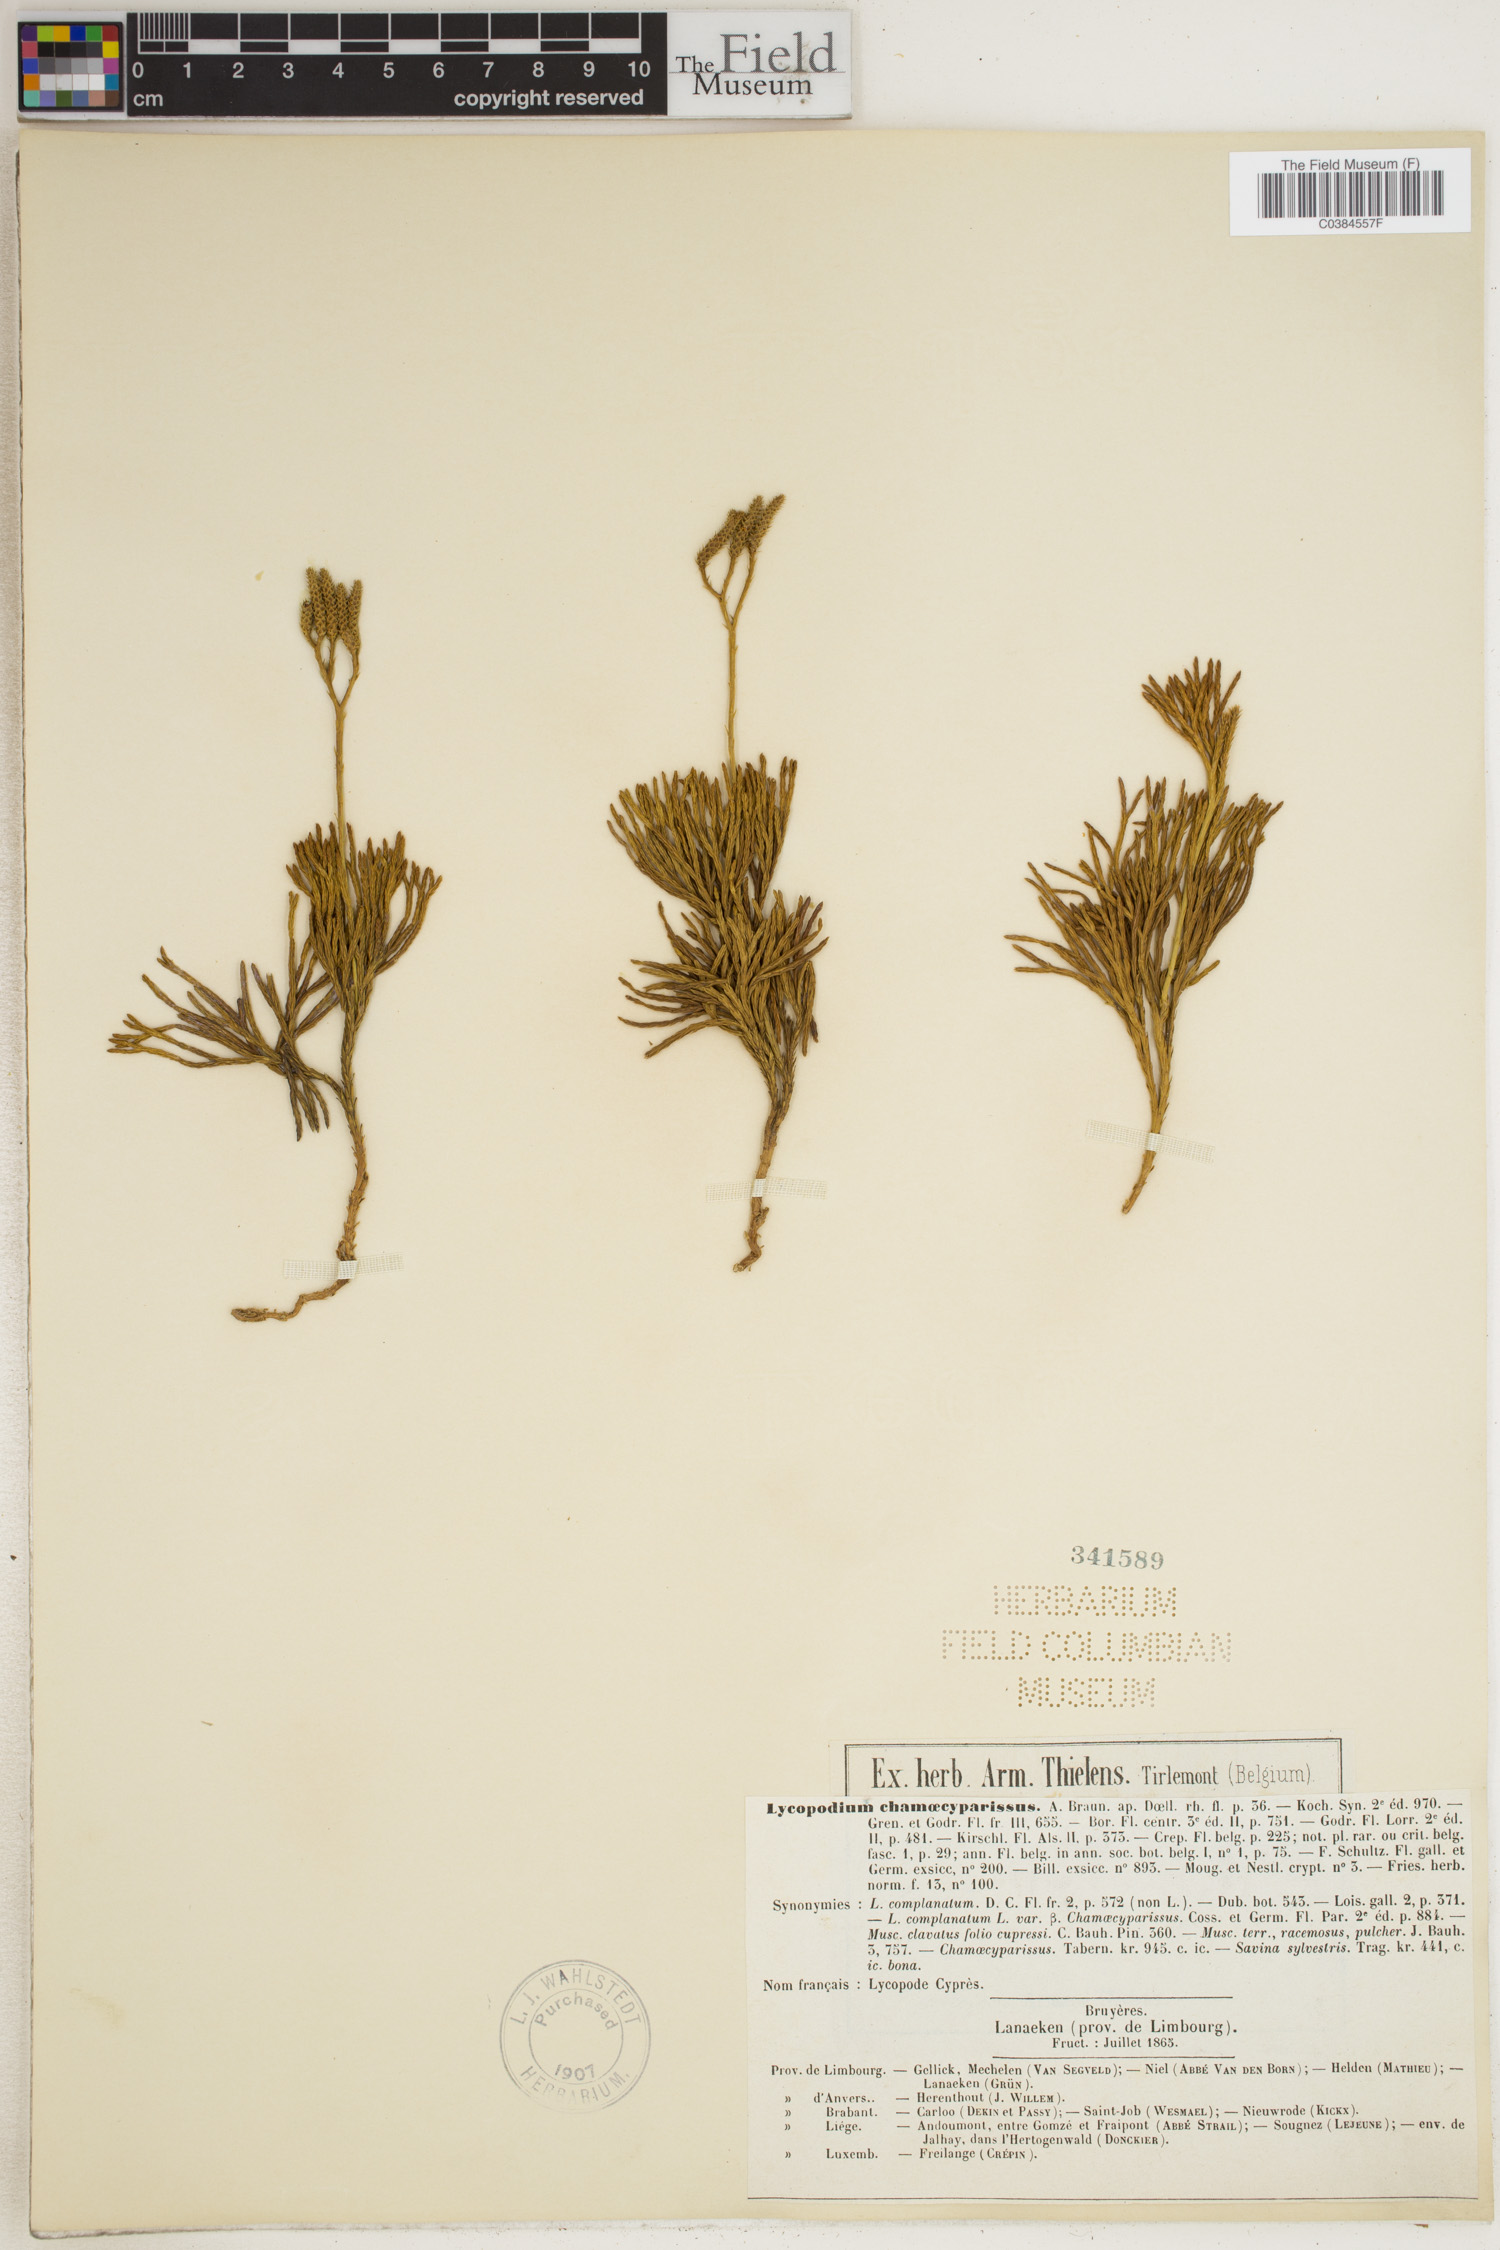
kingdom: Plantae
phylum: Tracheophyta
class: Lycopodiopsida
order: Lycopodiales
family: Lycopodiaceae
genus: Diphasiastrum
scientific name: Diphasiastrum tristachyum
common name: Blue ground-cedar
